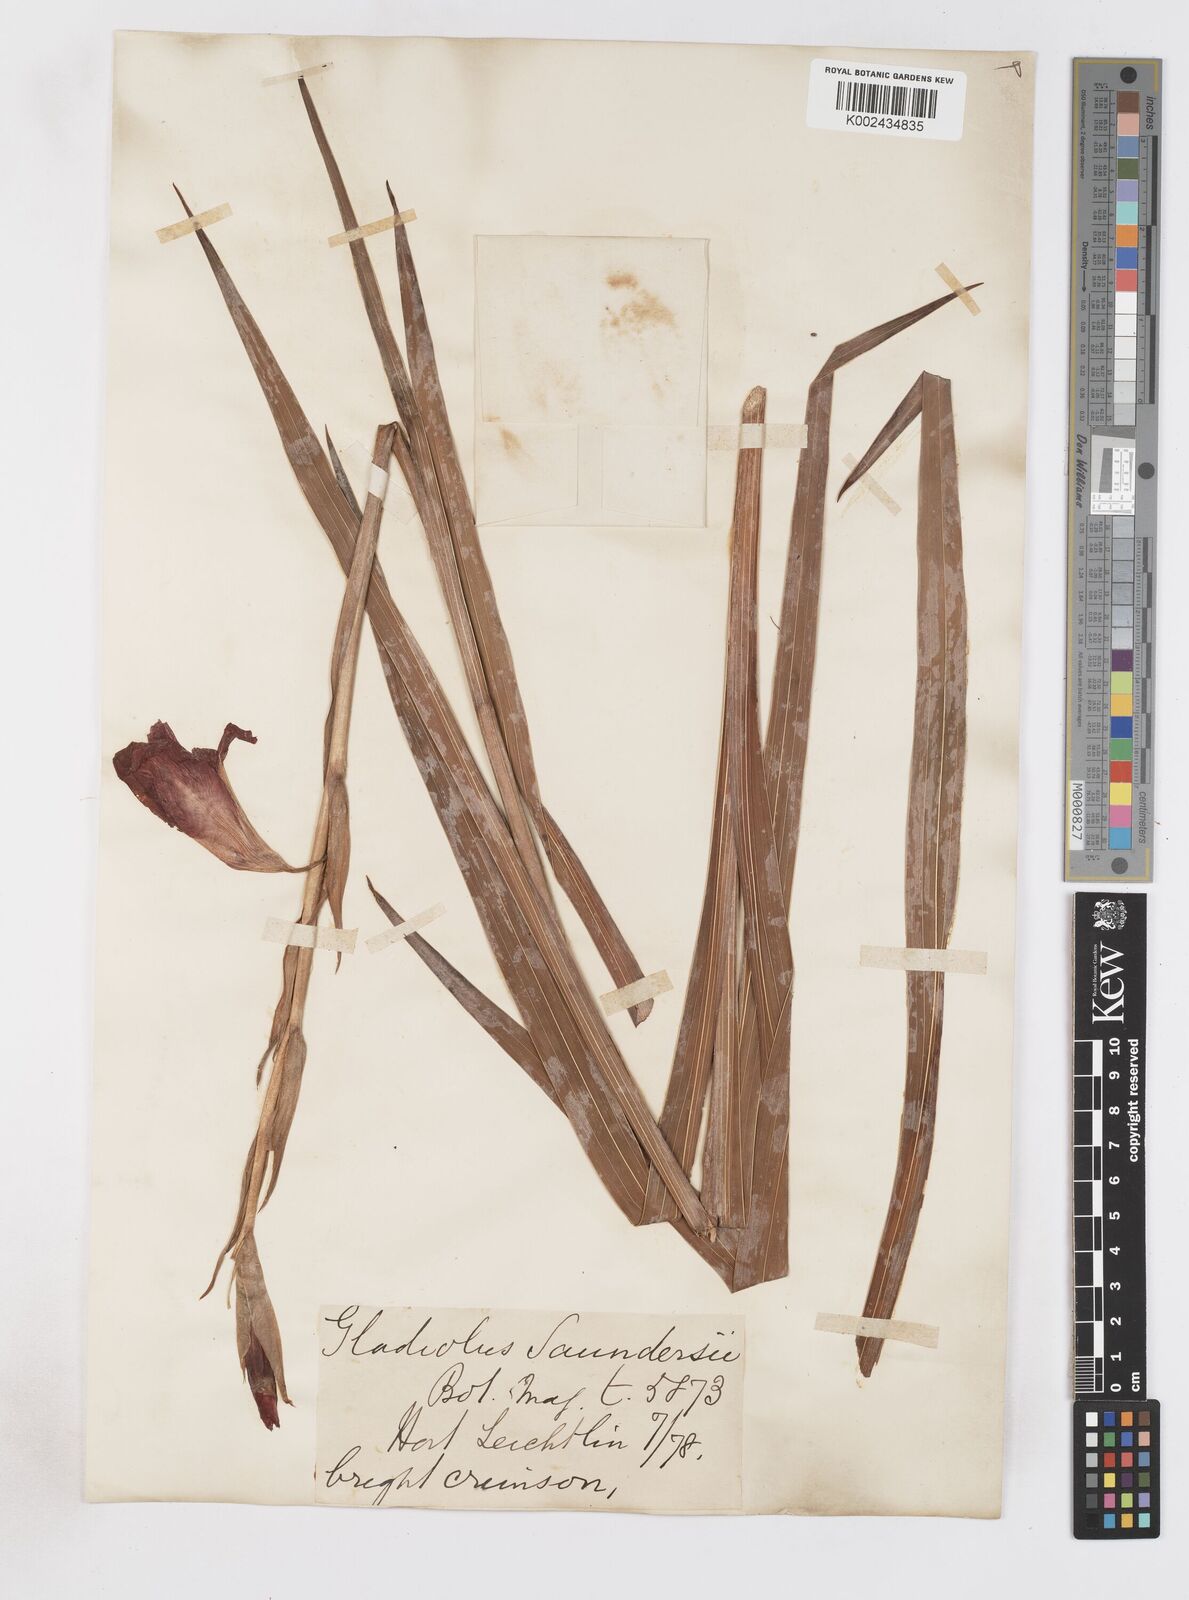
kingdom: Plantae
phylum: Tracheophyta
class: Liliopsida
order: Asparagales
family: Iridaceae
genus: Gladiolus
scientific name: Gladiolus saundersii
